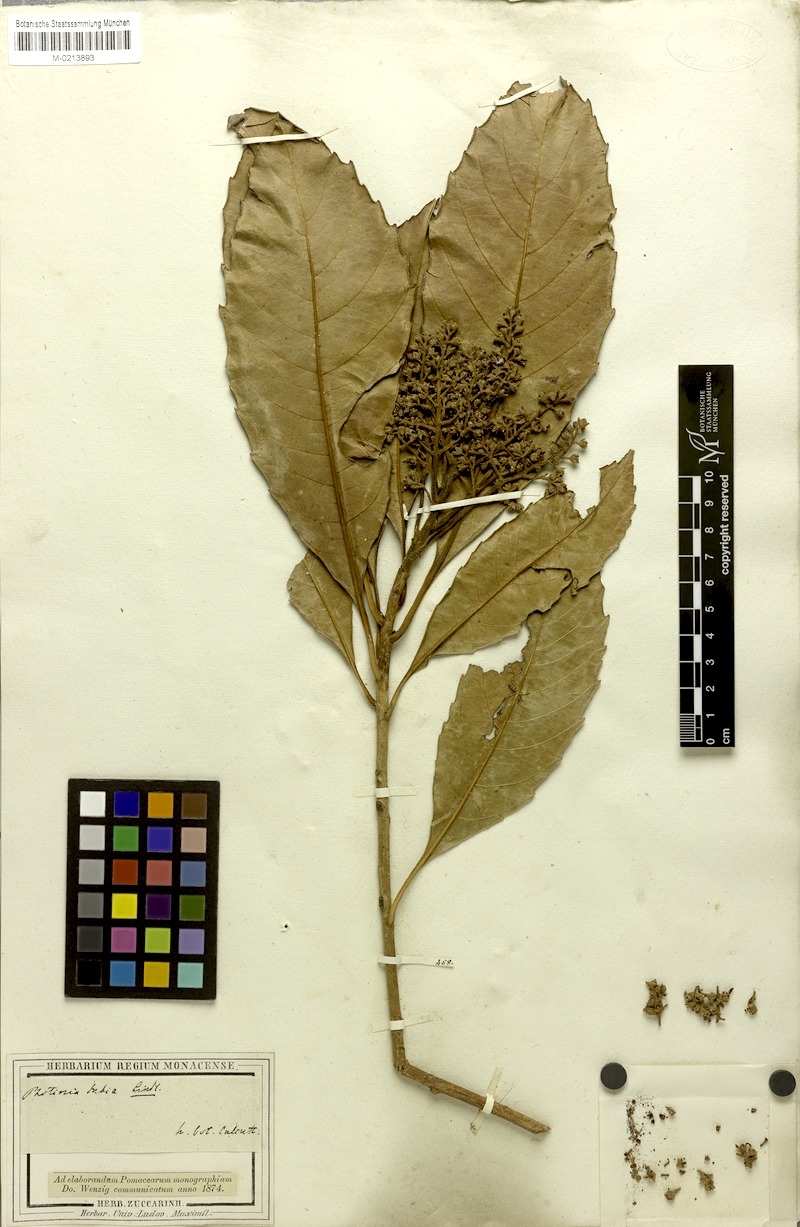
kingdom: Plantae
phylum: Tracheophyta
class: Magnoliopsida
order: Rosales
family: Rosaceae
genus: Rhaphiolepis
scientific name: Rhaphiolepis dubia
